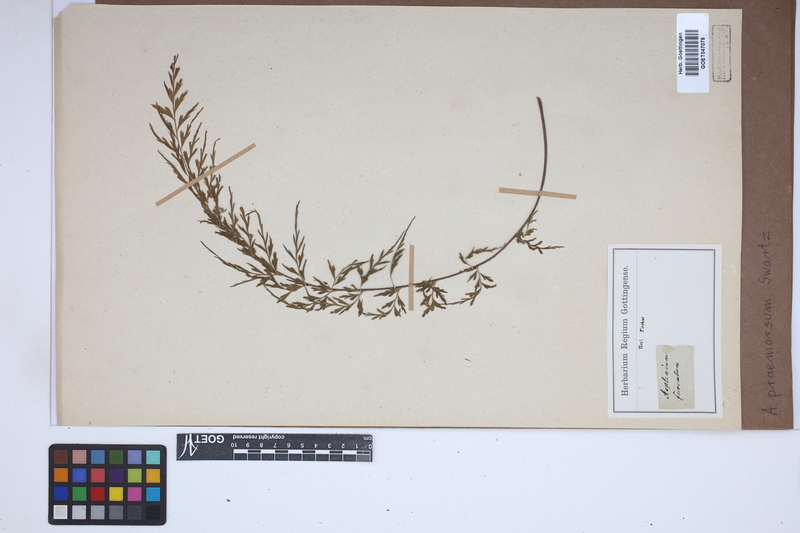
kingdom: Plantae
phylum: Tracheophyta
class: Polypodiopsida
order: Polypodiales
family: Aspleniaceae
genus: Asplenium
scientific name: Asplenium praemorsum
